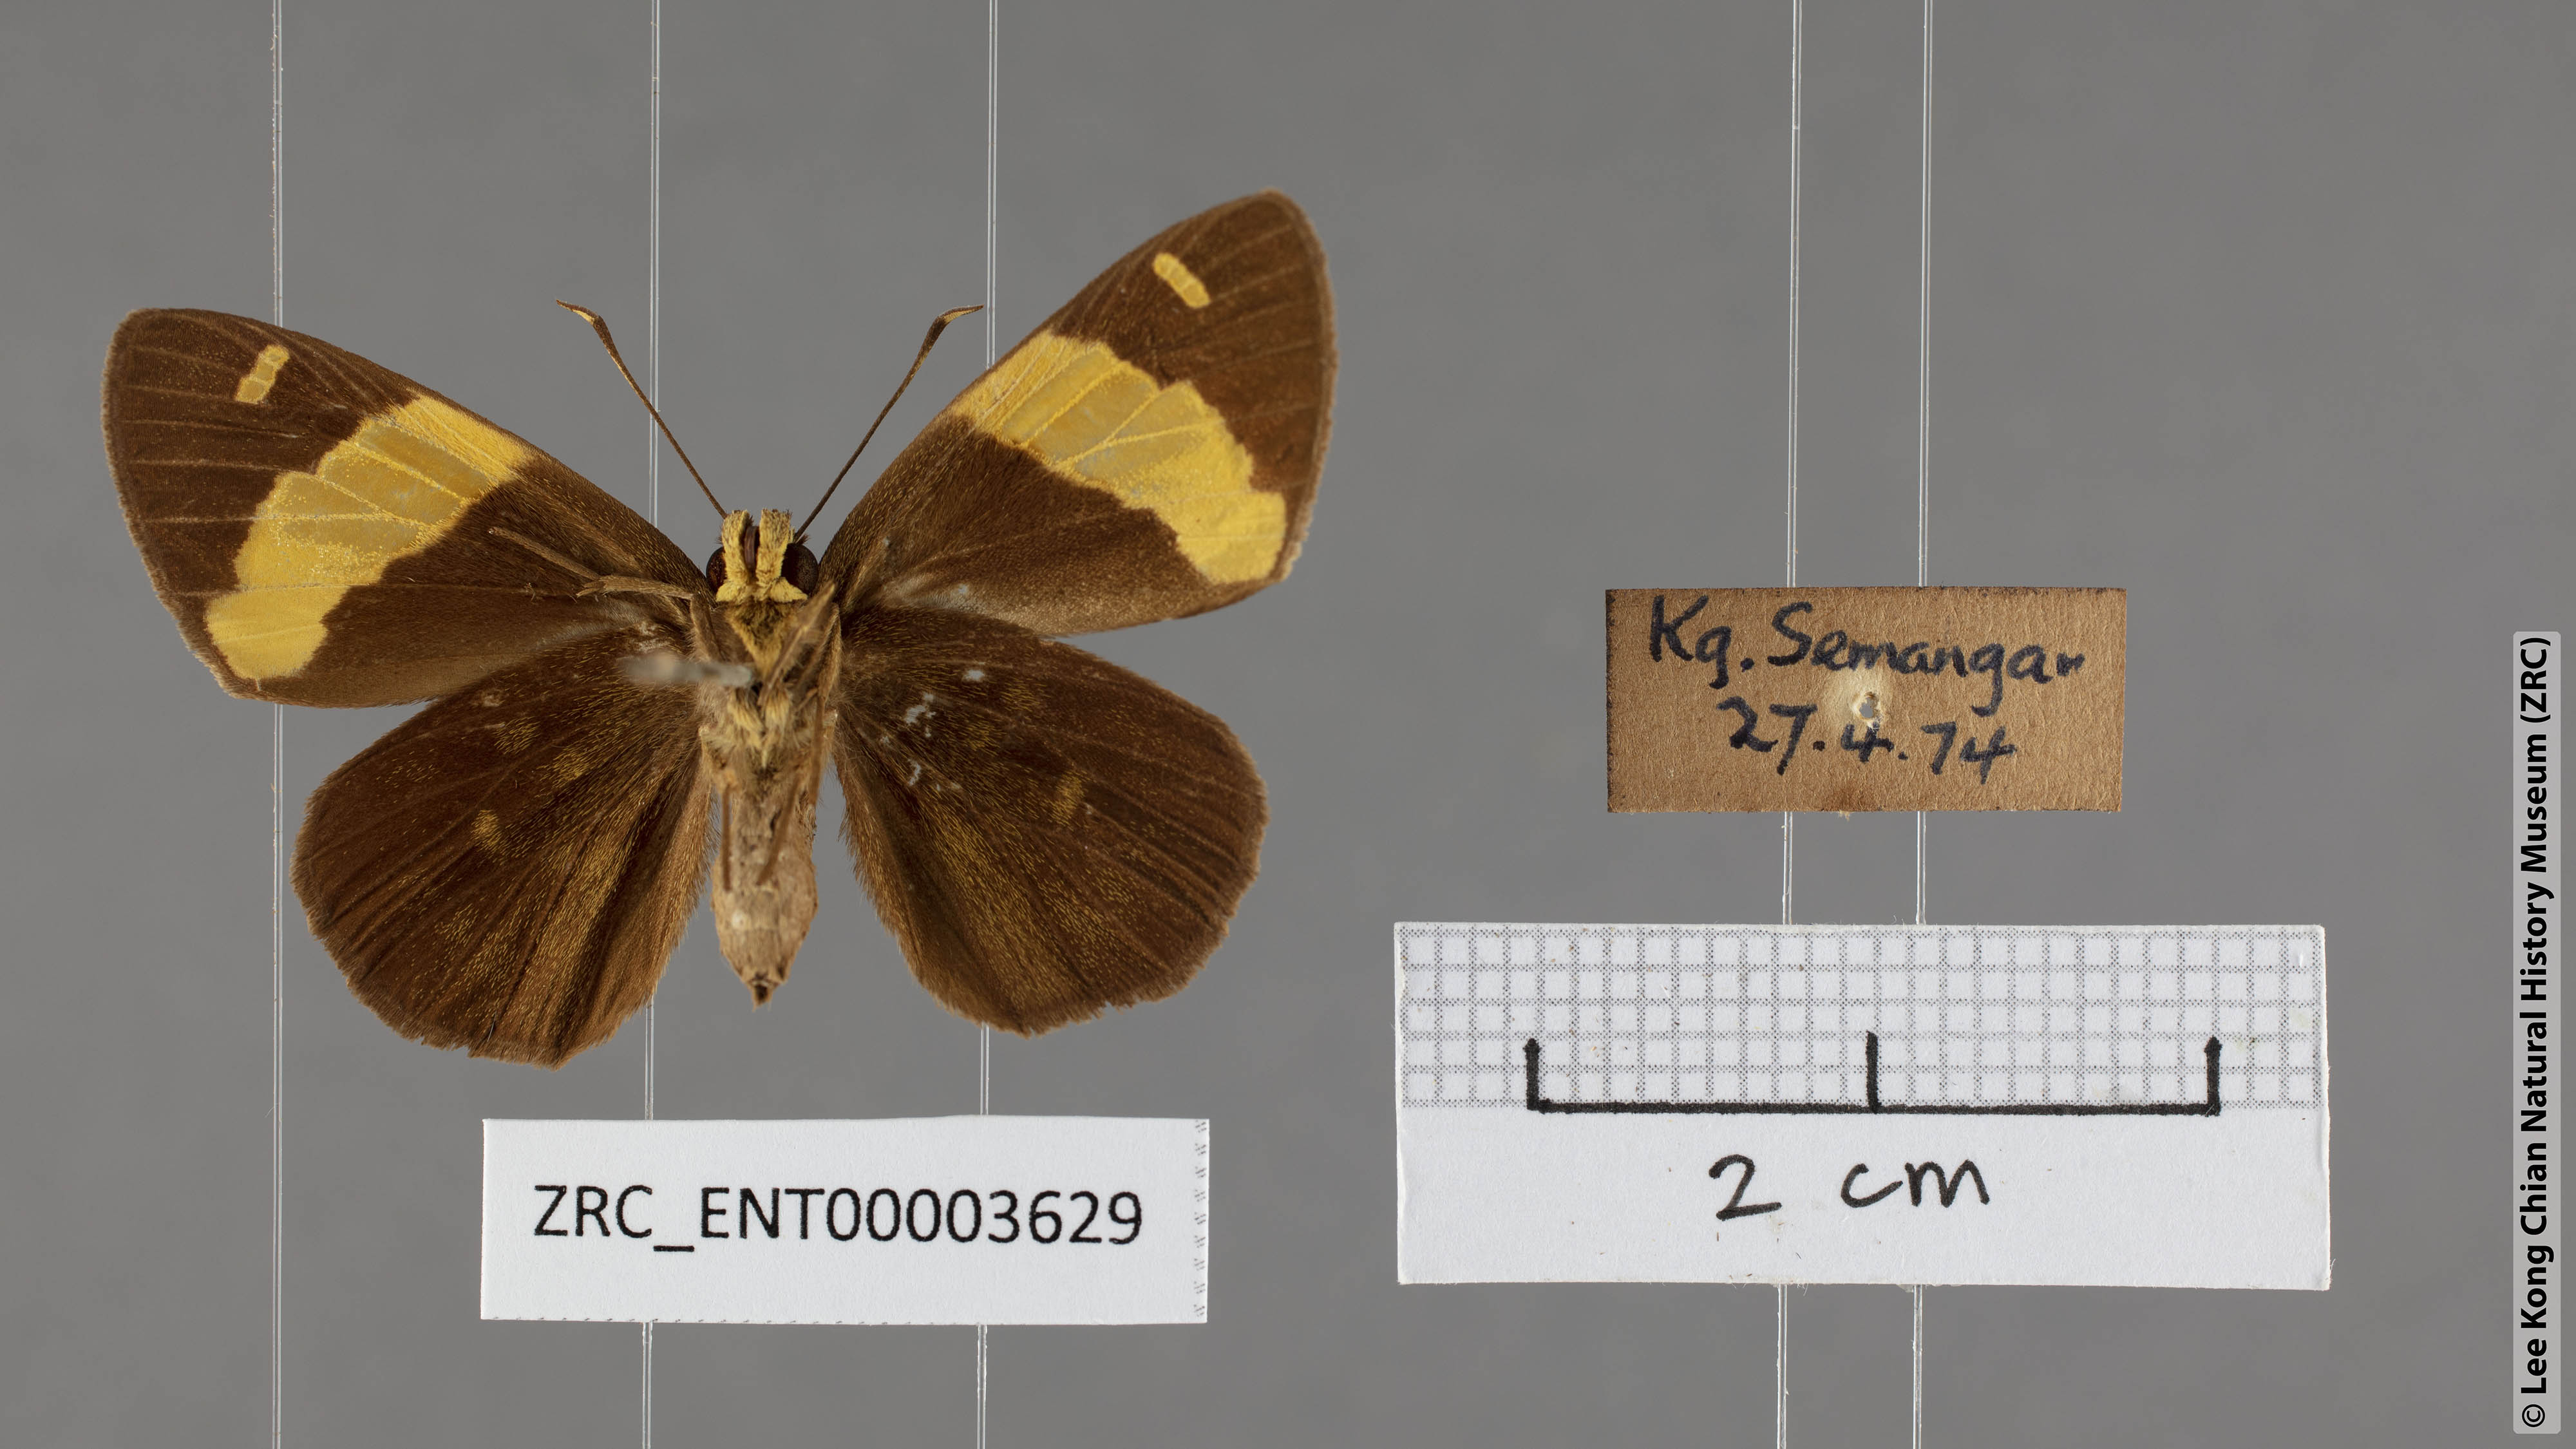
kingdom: Animalia
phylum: Arthropoda
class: Insecta
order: Lepidoptera
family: Hesperiidae
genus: Celaenorrhinus
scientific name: Celaenorrhinus aurivittata
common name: Dark yellow-banded flat
